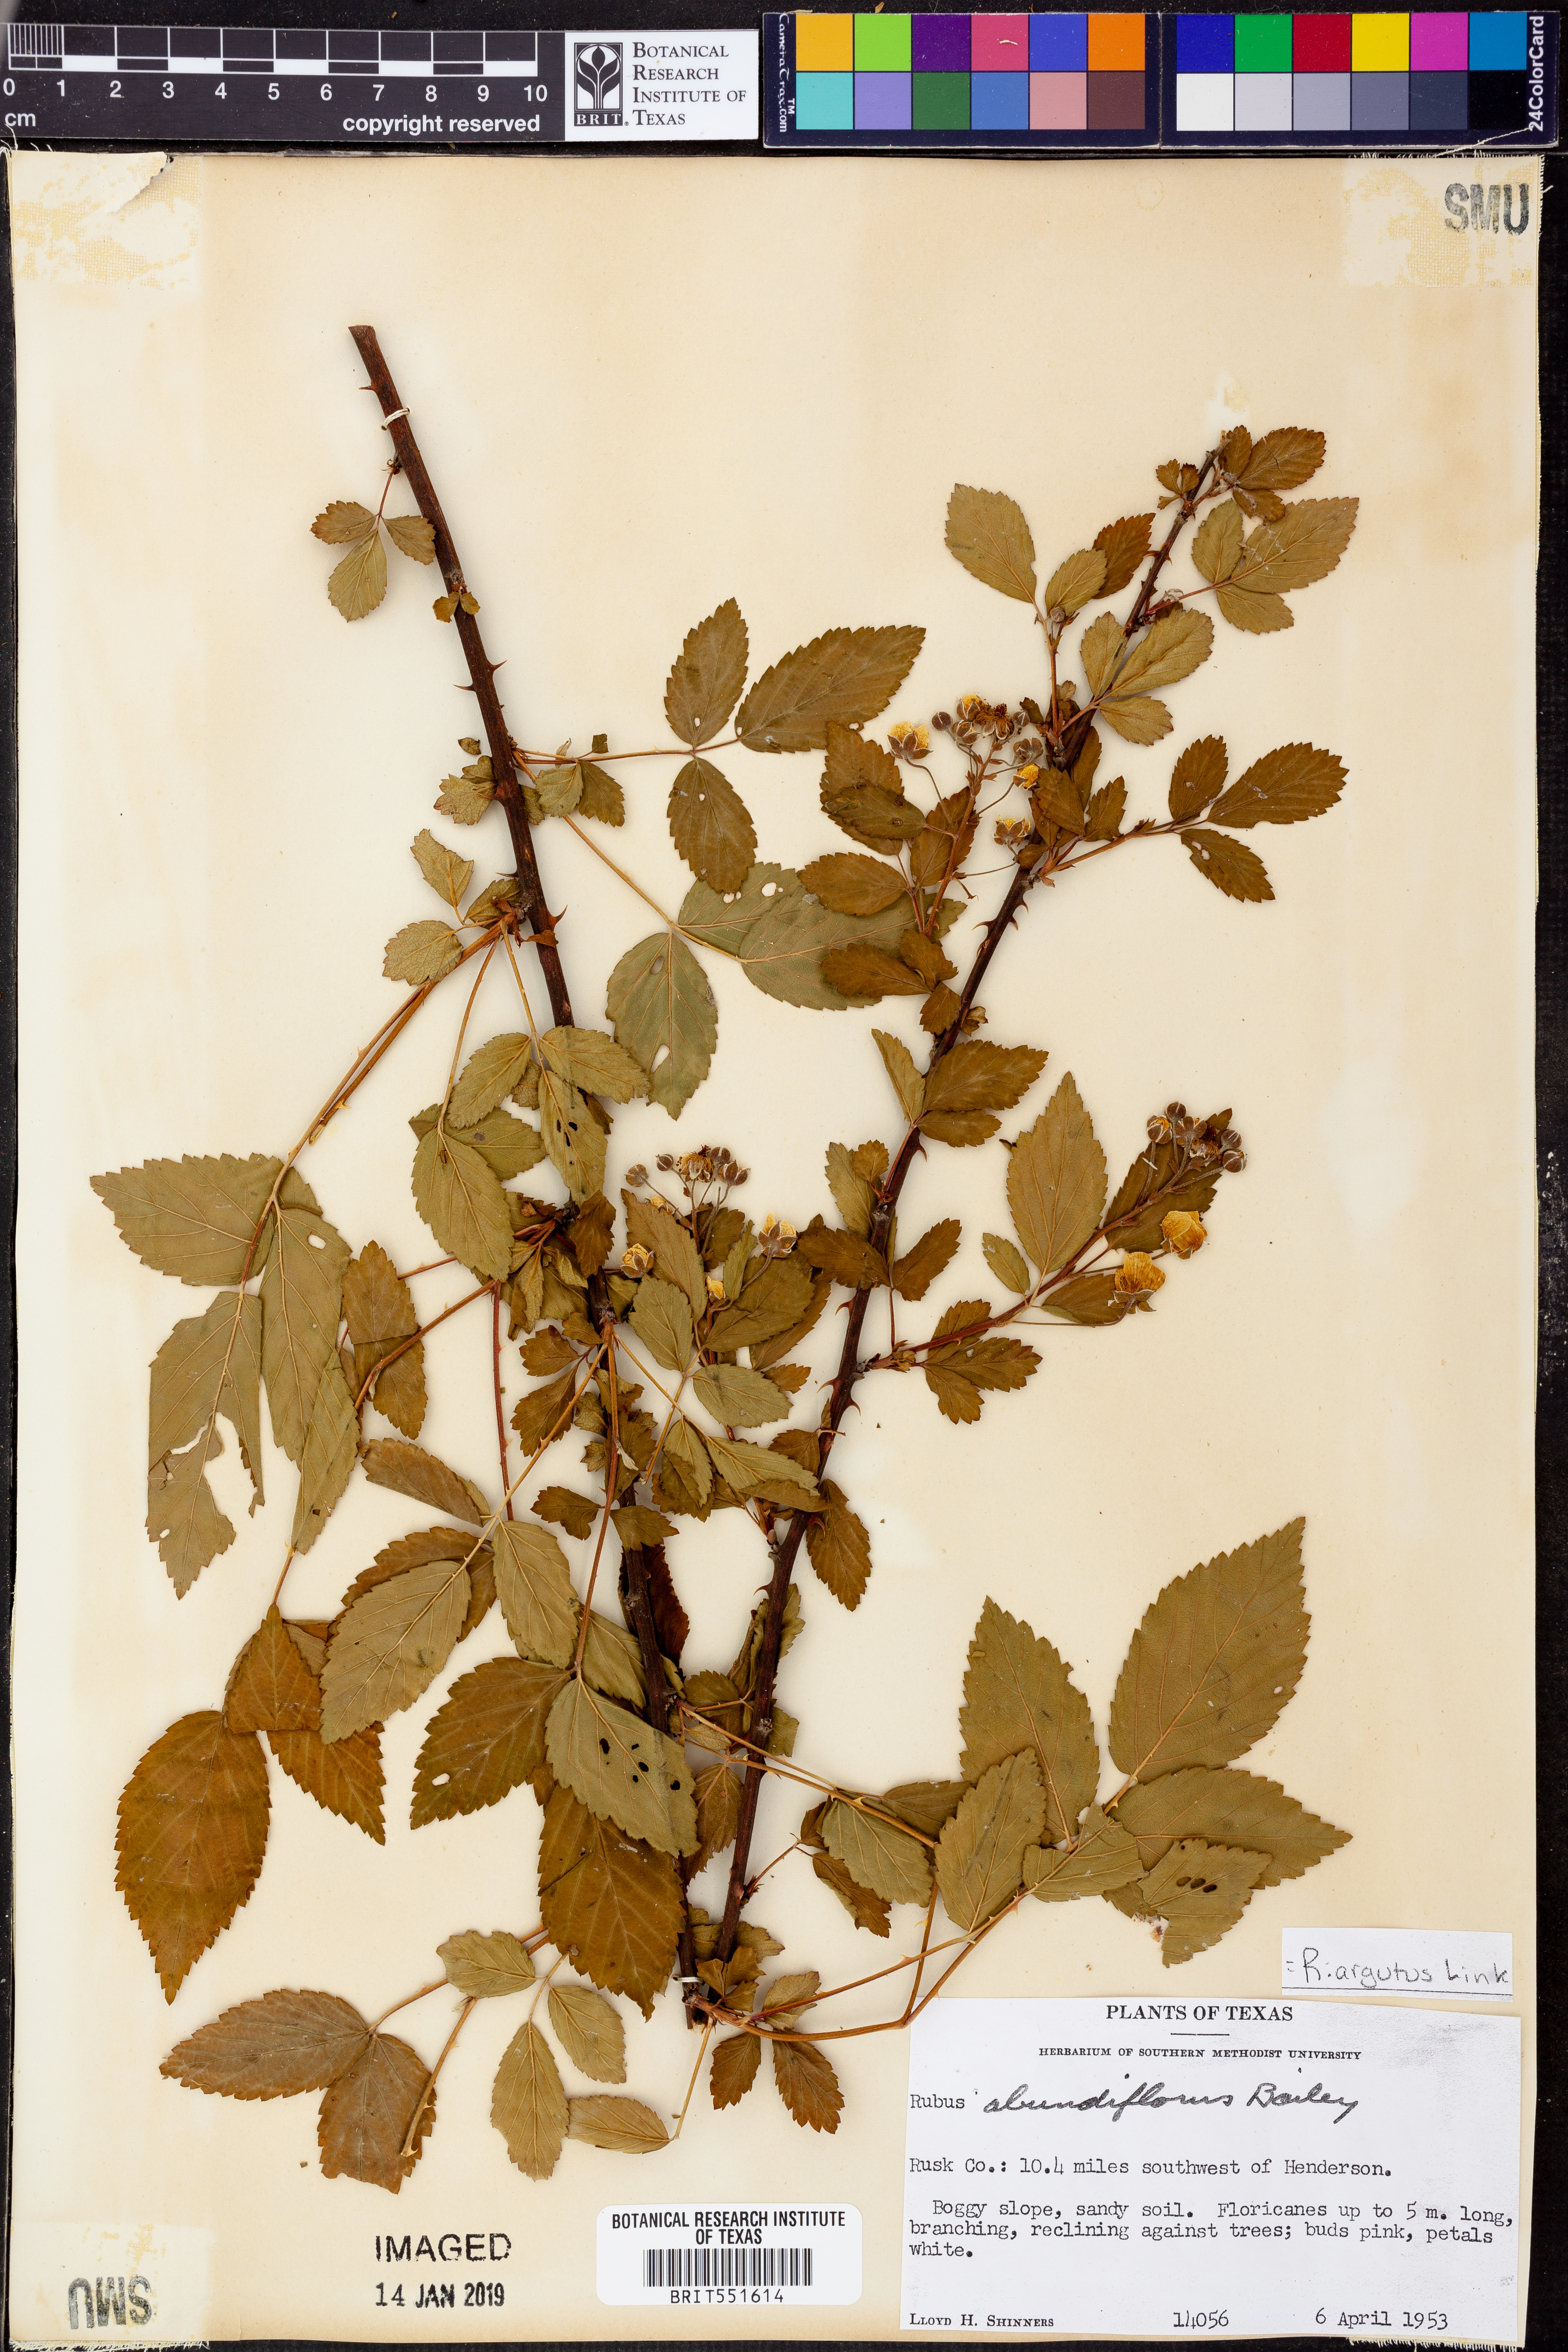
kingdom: Plantae
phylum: Tracheophyta
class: Magnoliopsida
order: Rosales
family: Rosaceae
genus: Rubus
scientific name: Rubus argutus
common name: Sawtooth blackberry
